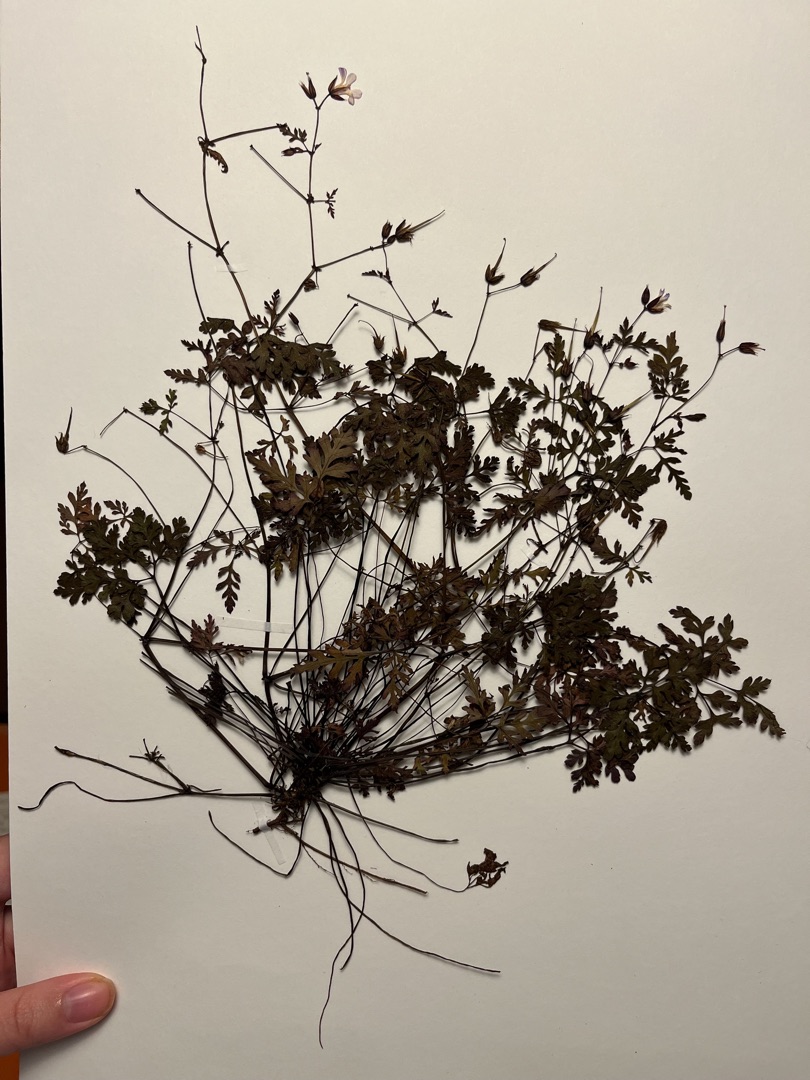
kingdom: Plantae
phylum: Tracheophyta
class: Magnoliopsida
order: Geraniales
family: Geraniaceae
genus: Geranium
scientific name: Geranium robertianum
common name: Stinkende storkenæb
